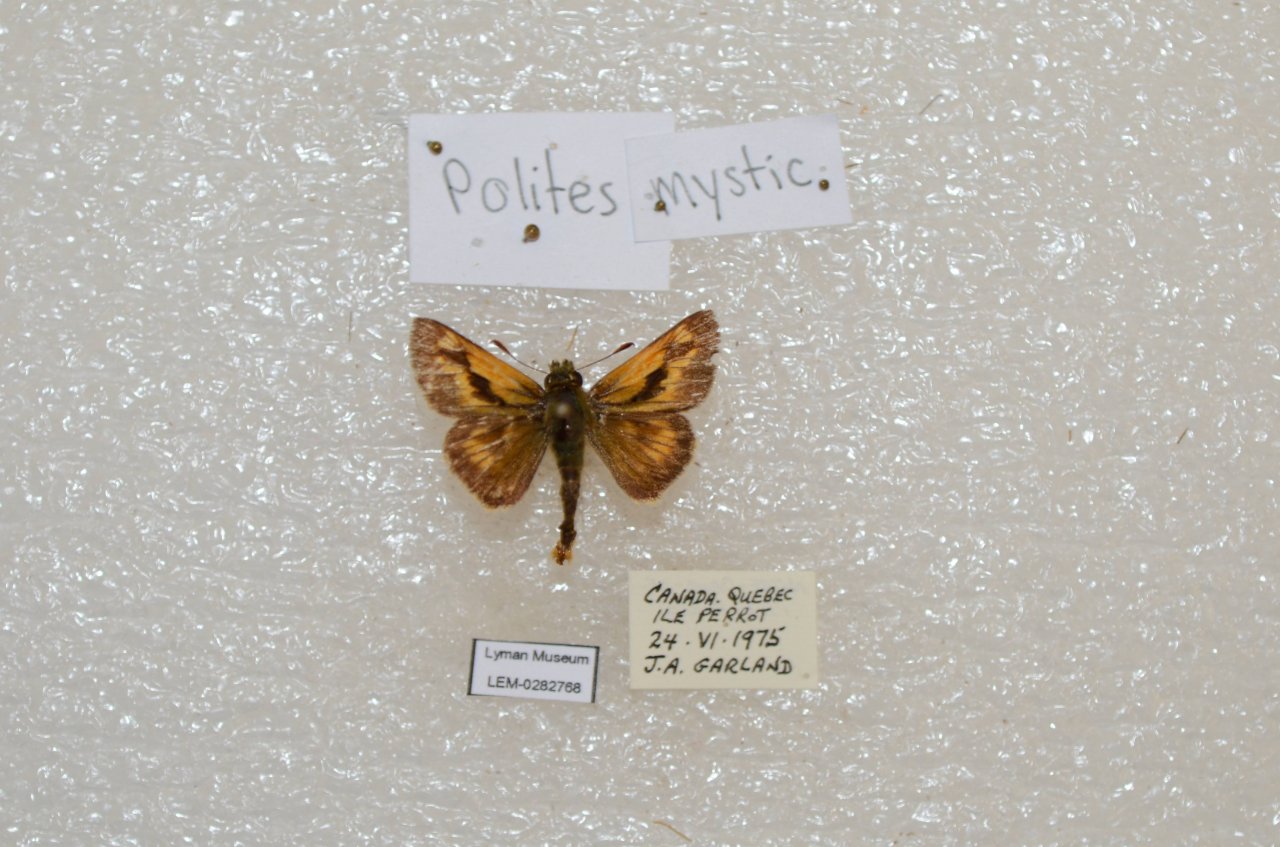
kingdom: Animalia
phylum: Arthropoda
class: Insecta
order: Lepidoptera
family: Hesperiidae
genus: Polites
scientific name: Polites
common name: Long Dash Skipper
